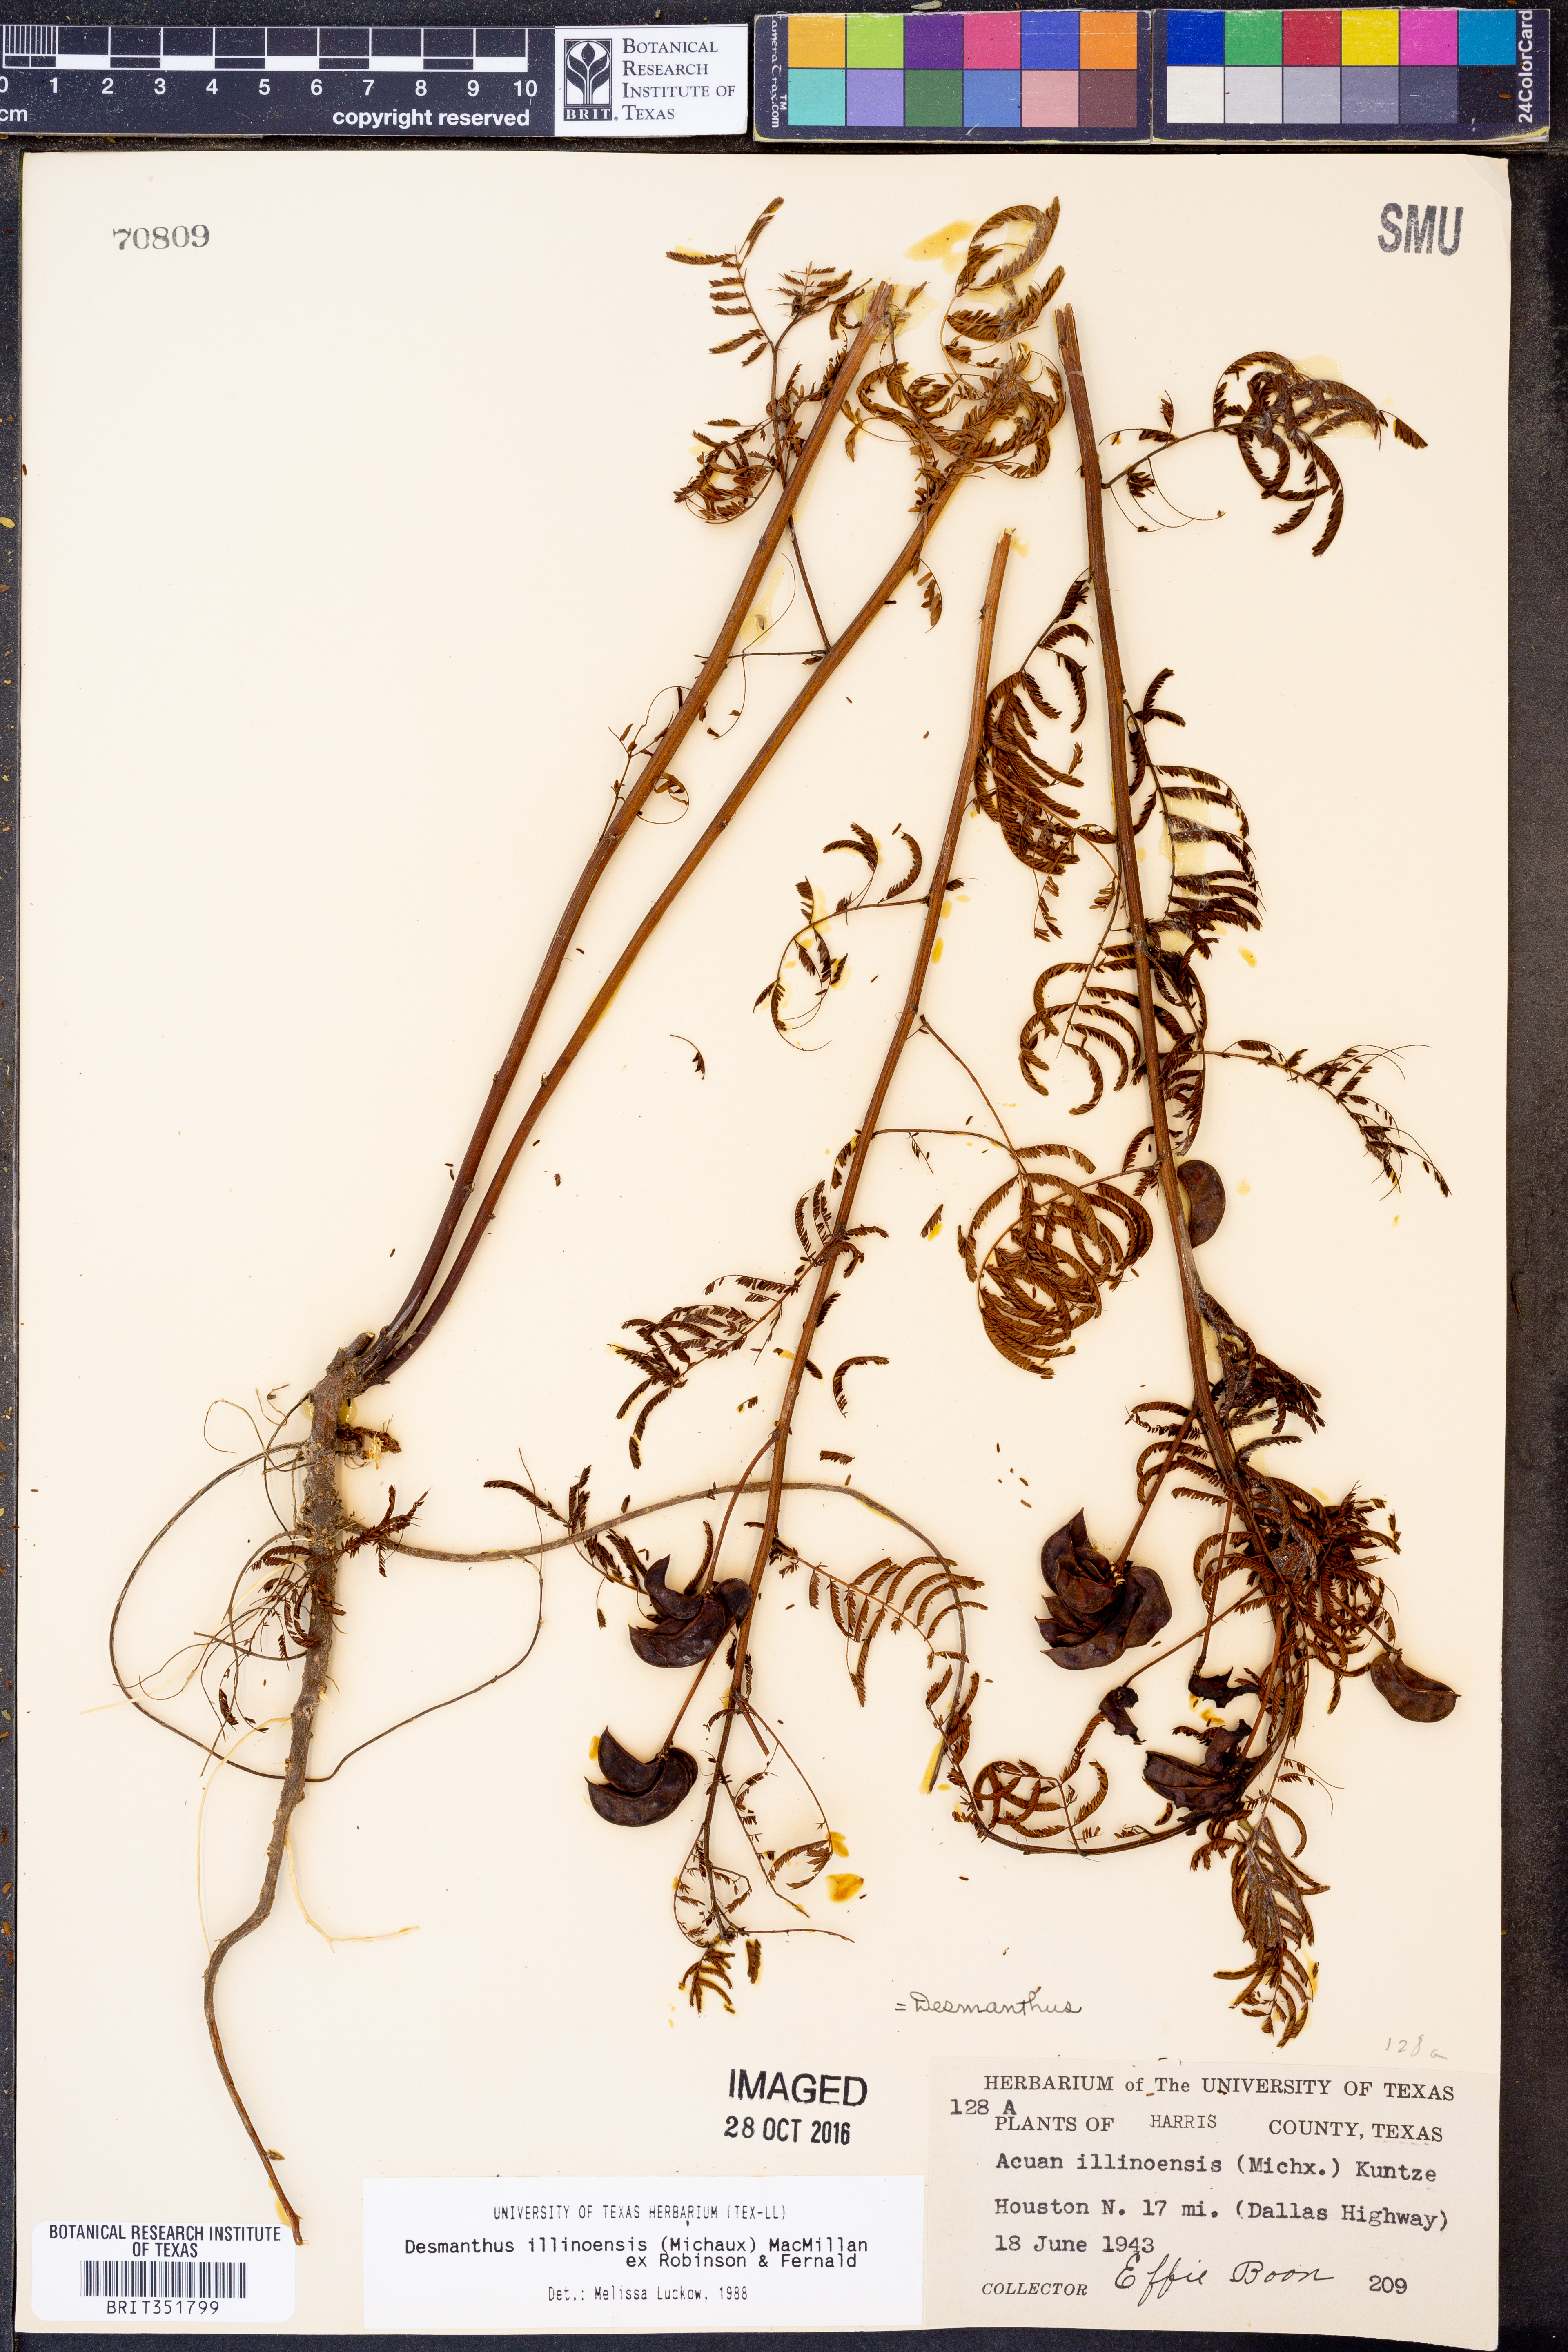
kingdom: Plantae
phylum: Tracheophyta
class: Magnoliopsida
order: Fabales
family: Fabaceae
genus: Desmanthus
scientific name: Desmanthus illinoensis
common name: Illinois bundle-flower
